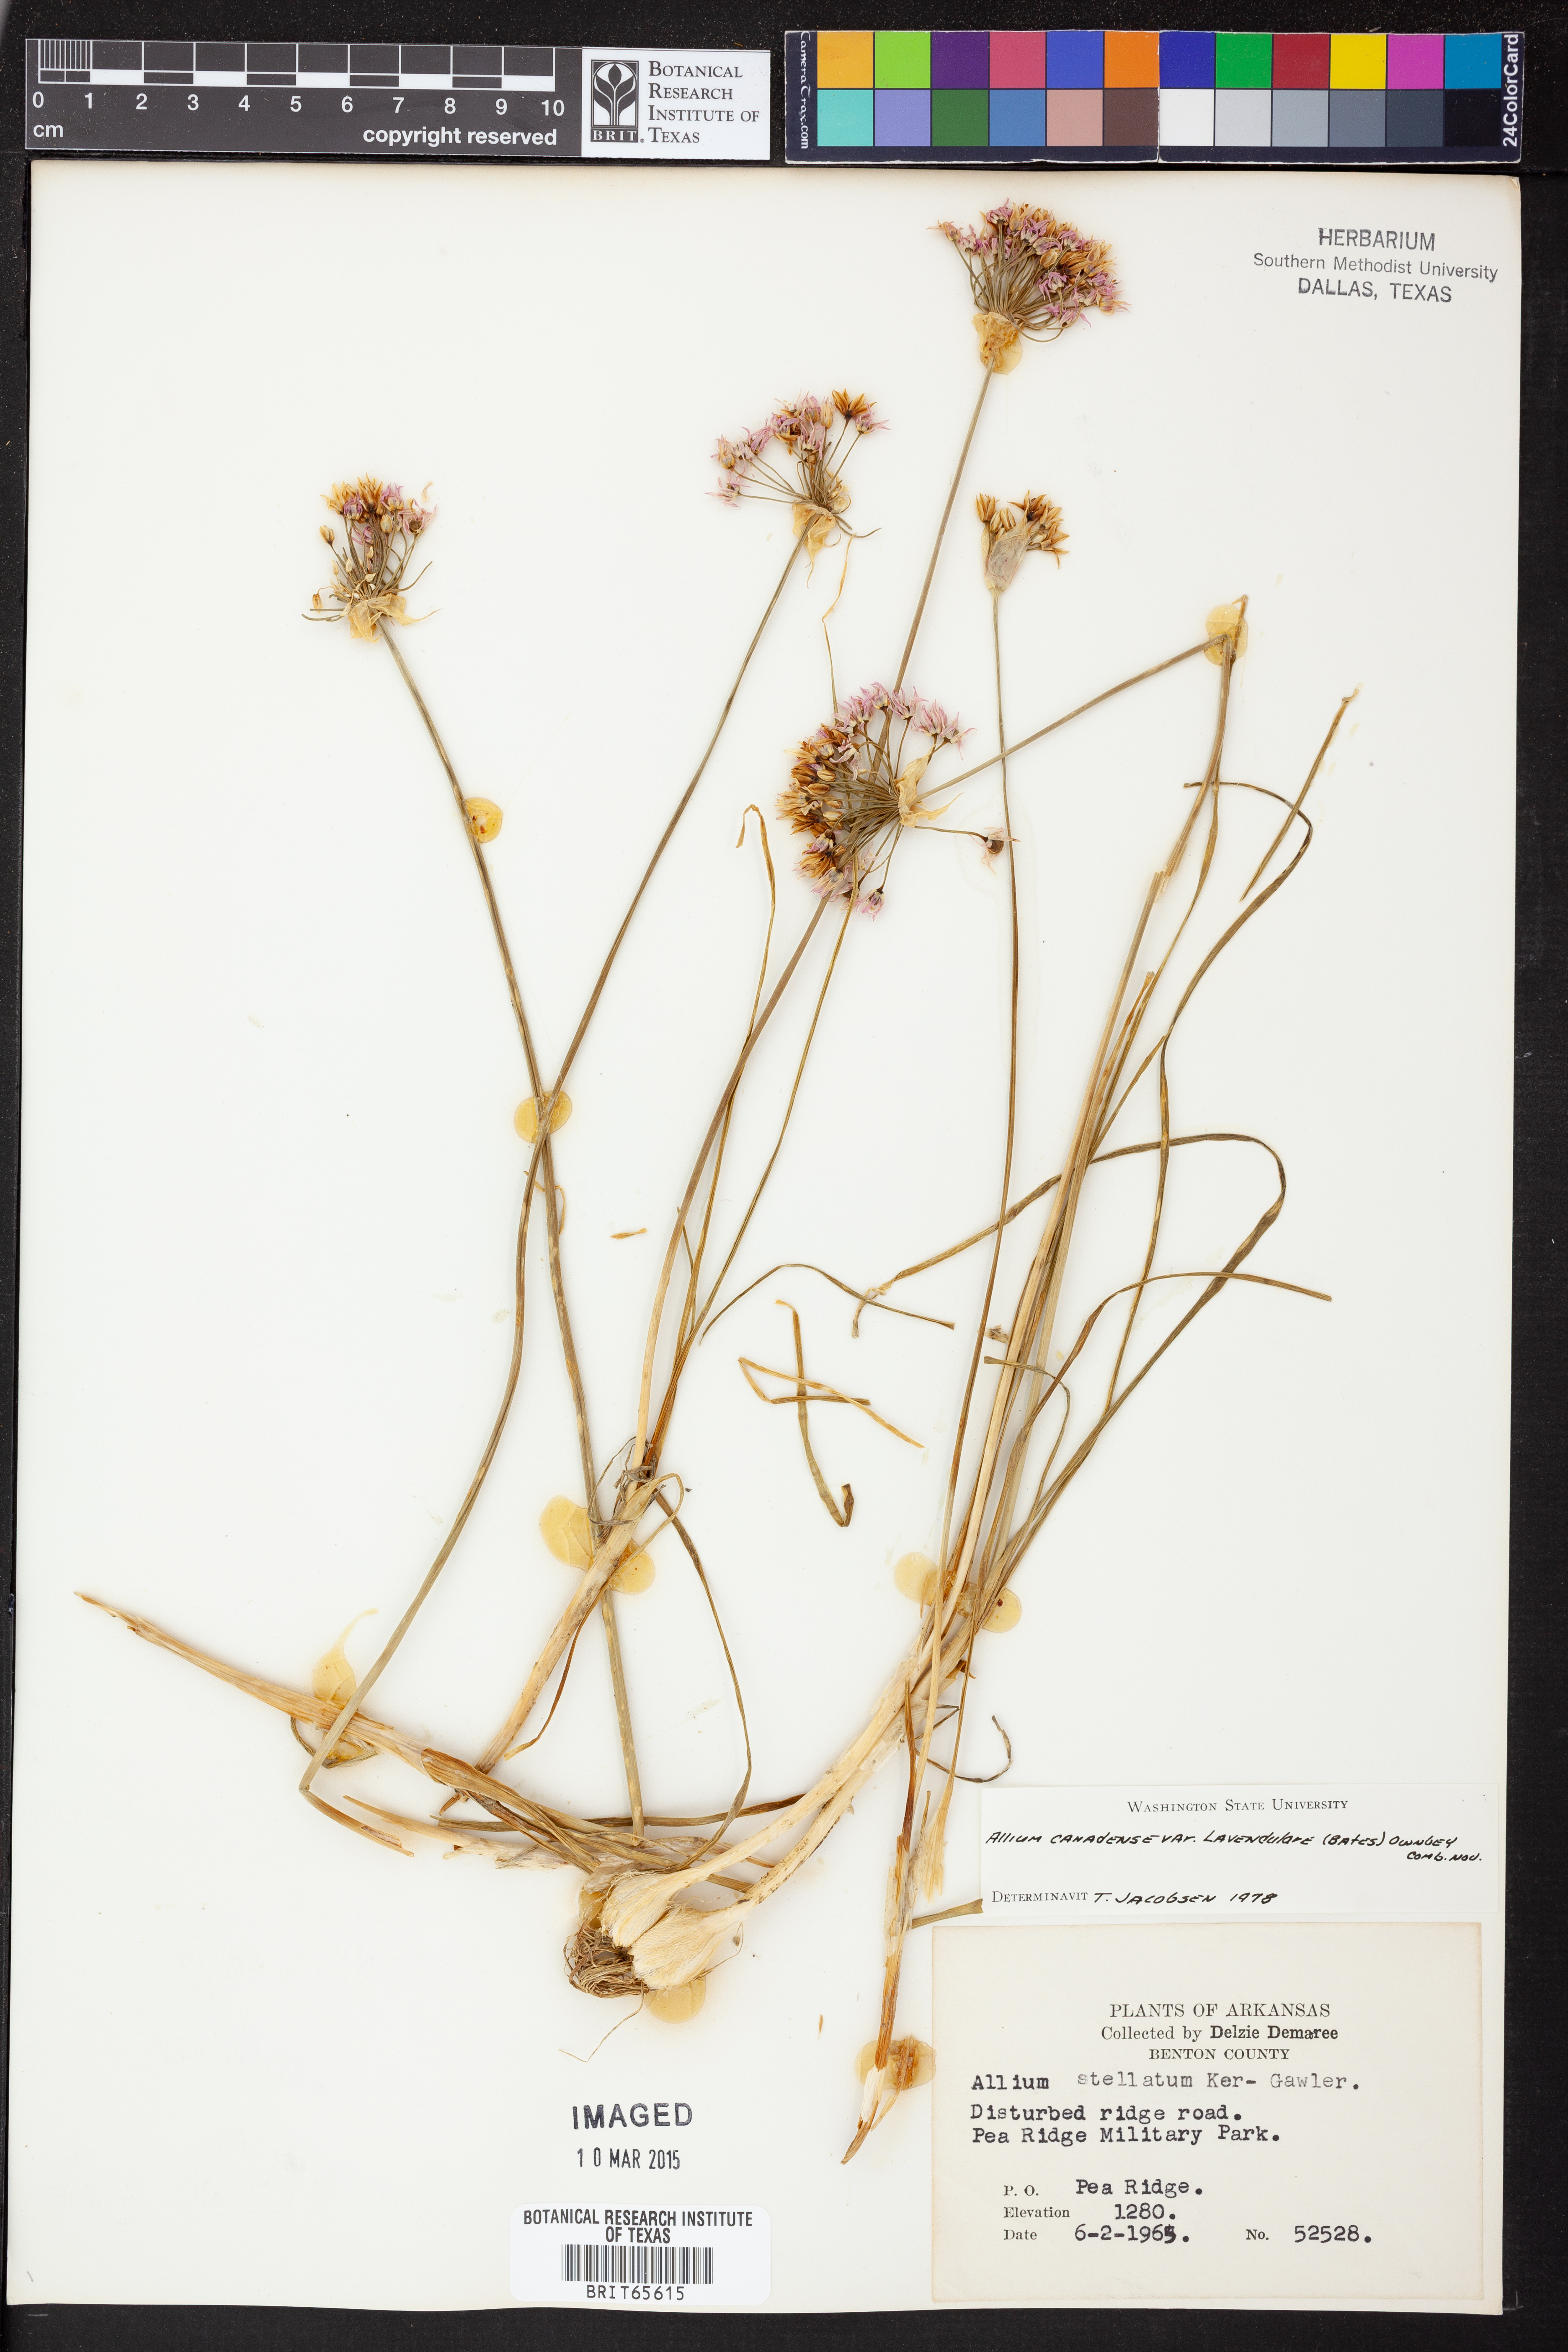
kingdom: Plantae
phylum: Tracheophyta
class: Liliopsida
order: Asparagales
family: Amaryllidaceae
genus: Allium
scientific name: Allium canadense
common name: Meadow garlic
